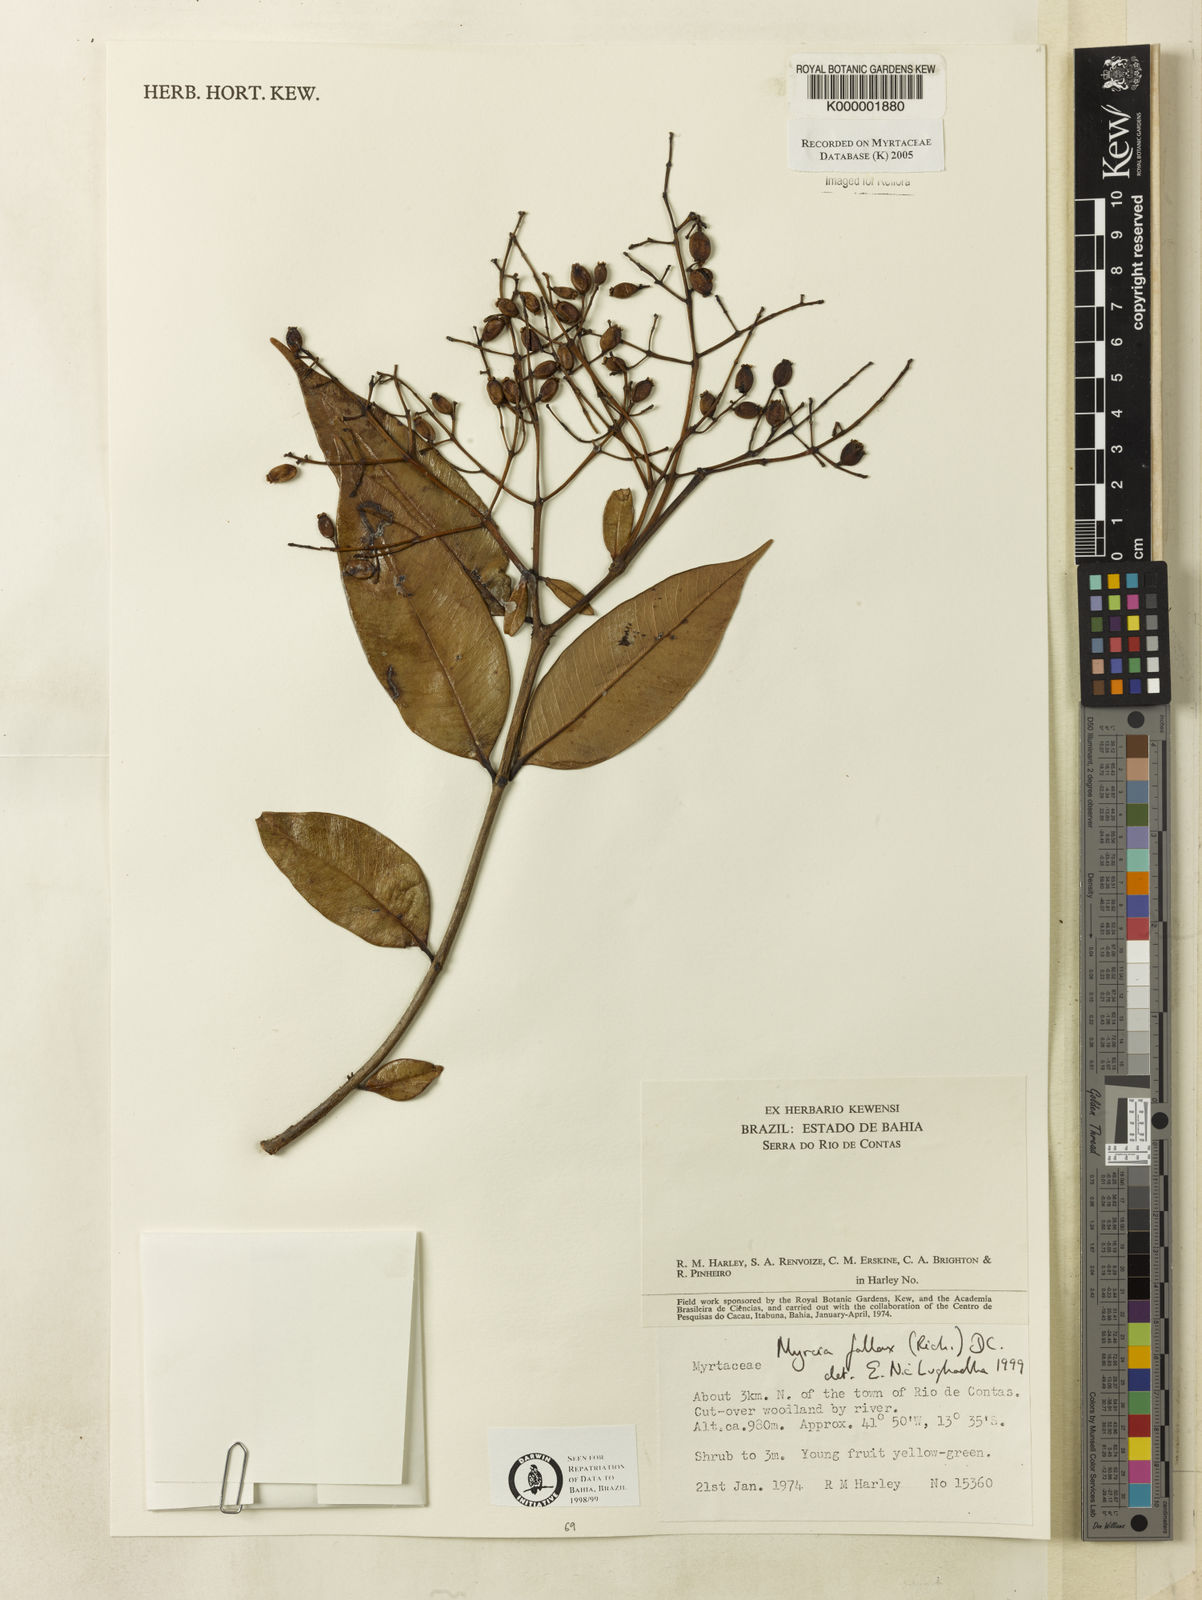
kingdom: Plantae
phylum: Tracheophyta
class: Magnoliopsida
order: Myrtales
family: Myrtaceae
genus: Myrcia
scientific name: Myrcia splendens
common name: Surinam cherry
